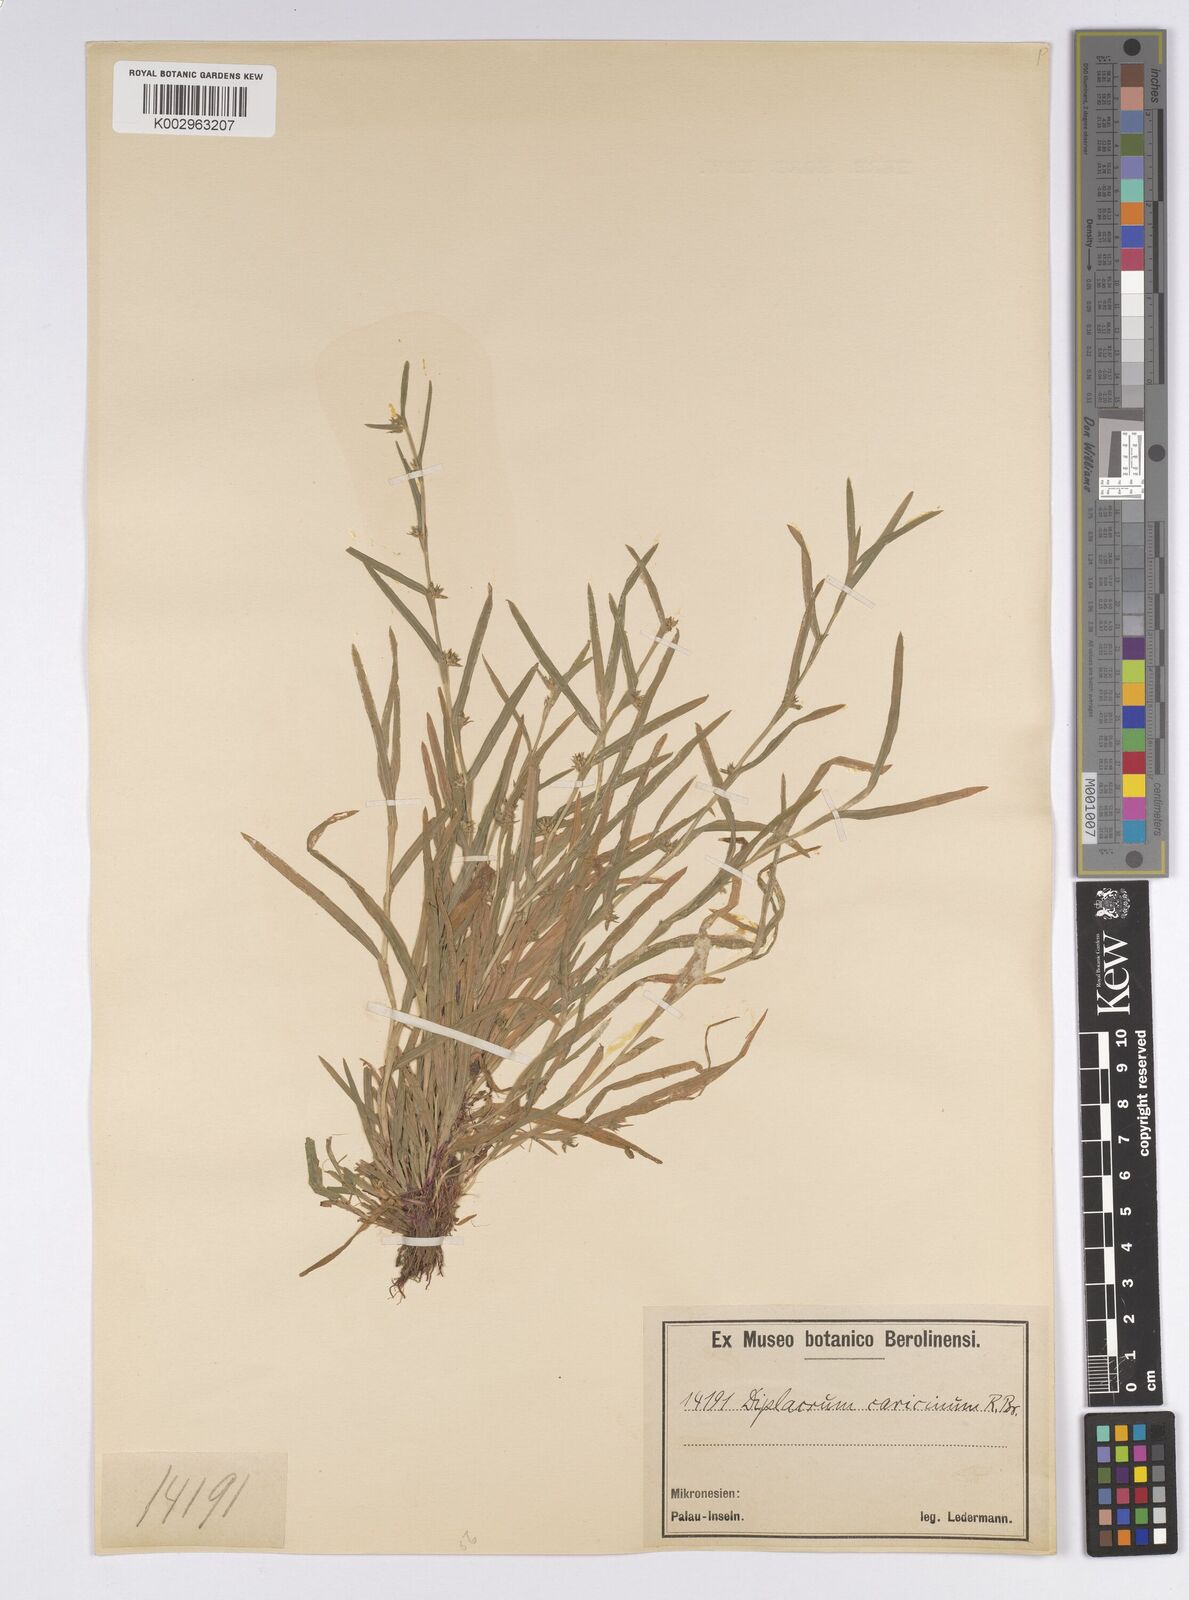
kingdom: Plantae
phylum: Tracheophyta
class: Liliopsida
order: Poales
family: Cyperaceae
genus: Diplacrum
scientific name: Diplacrum caricinum
